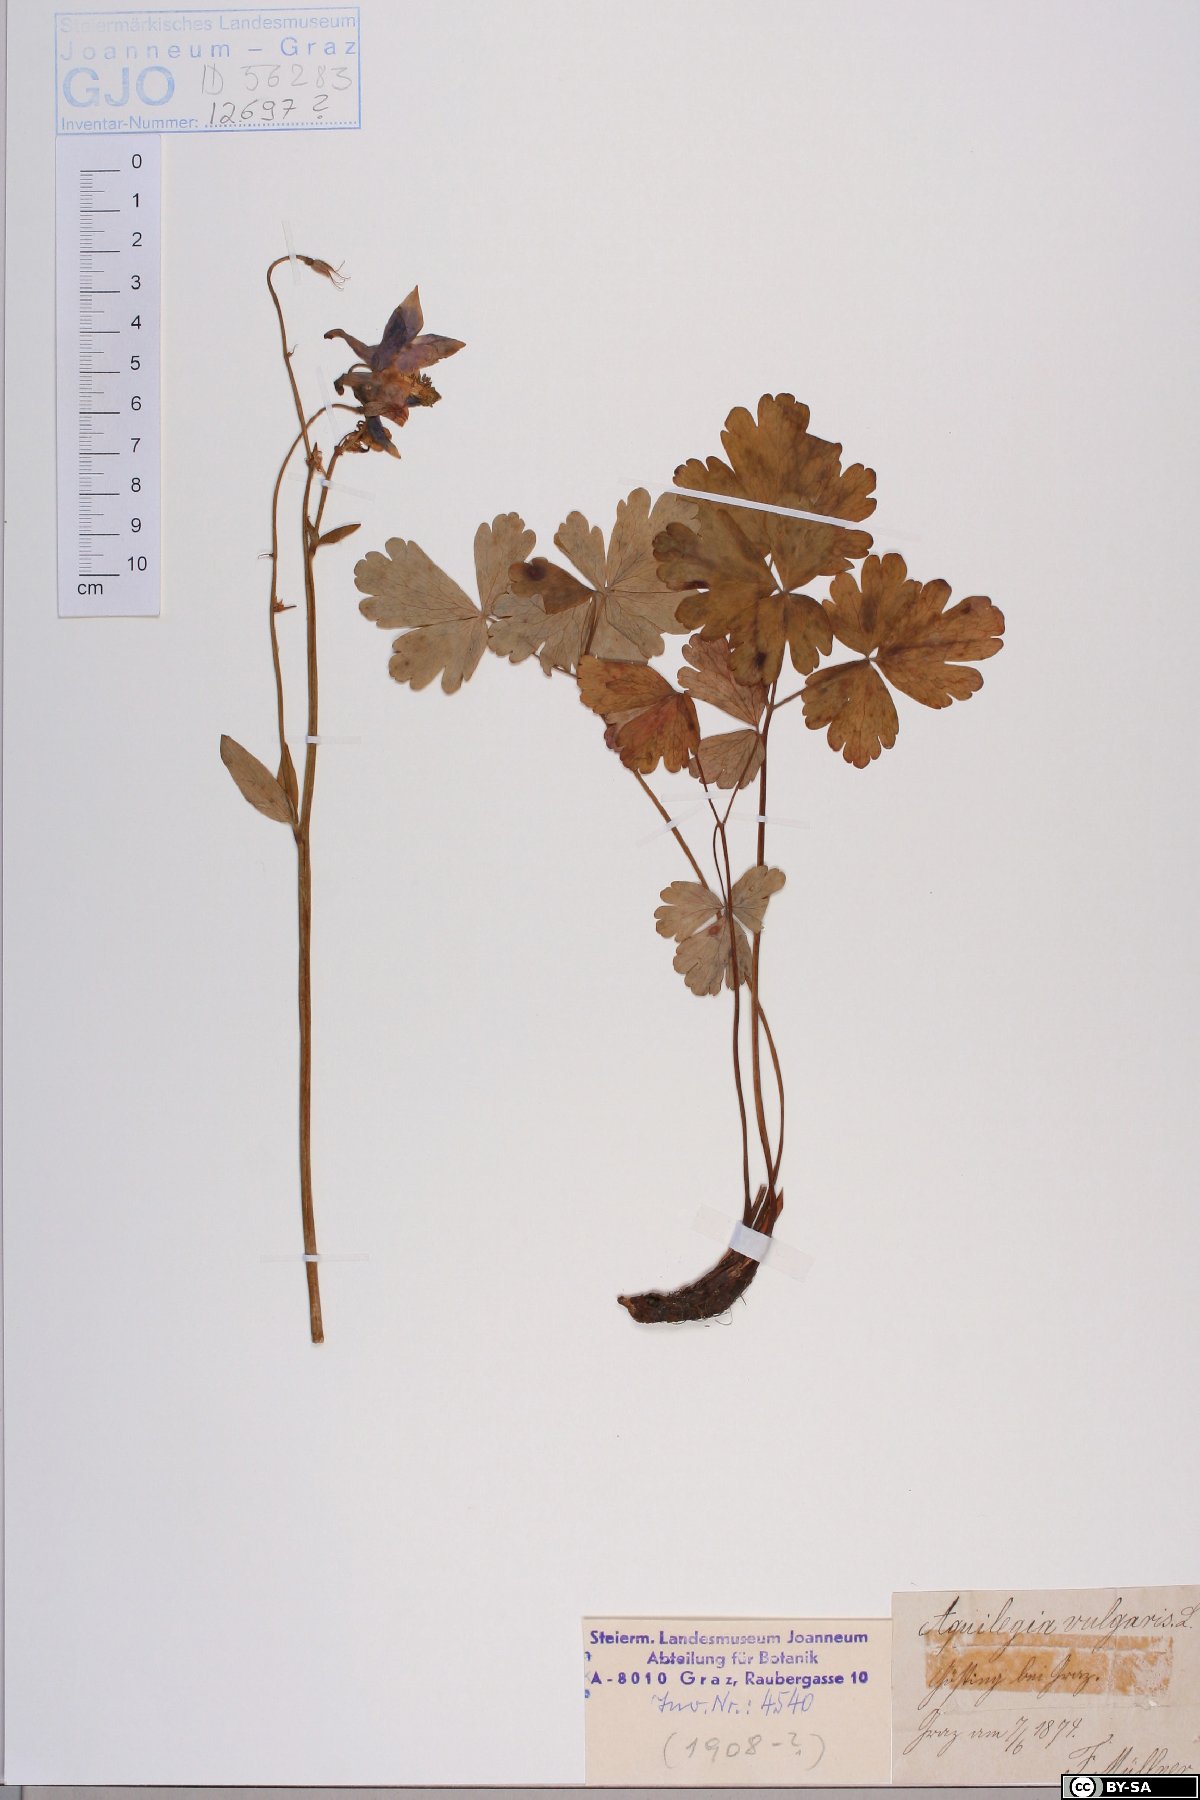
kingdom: Plantae
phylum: Tracheophyta
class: Magnoliopsida
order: Ranunculales
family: Ranunculaceae
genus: Aquilegia
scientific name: Aquilegia vulgaris
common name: Columbine
